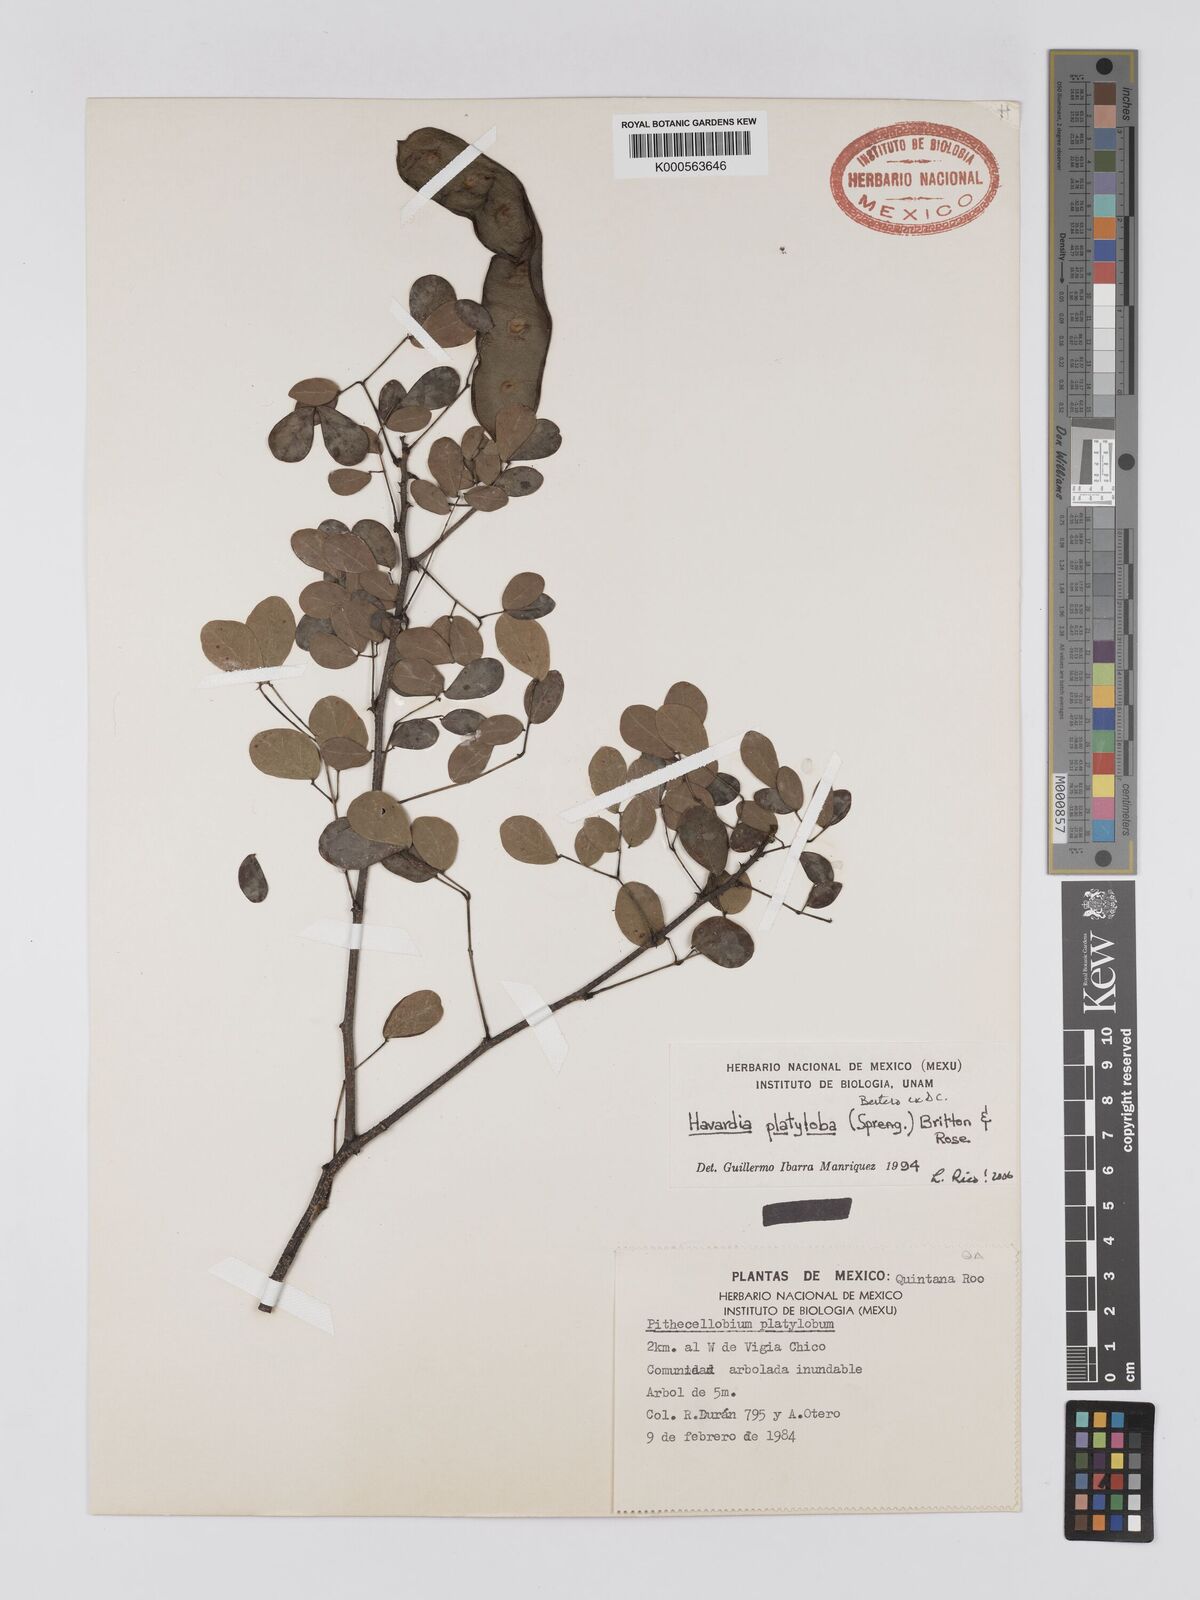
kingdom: Plantae
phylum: Tracheophyta
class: Magnoliopsida
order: Fabales
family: Fabaceae
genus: Havardia
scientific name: Havardia platyloba
